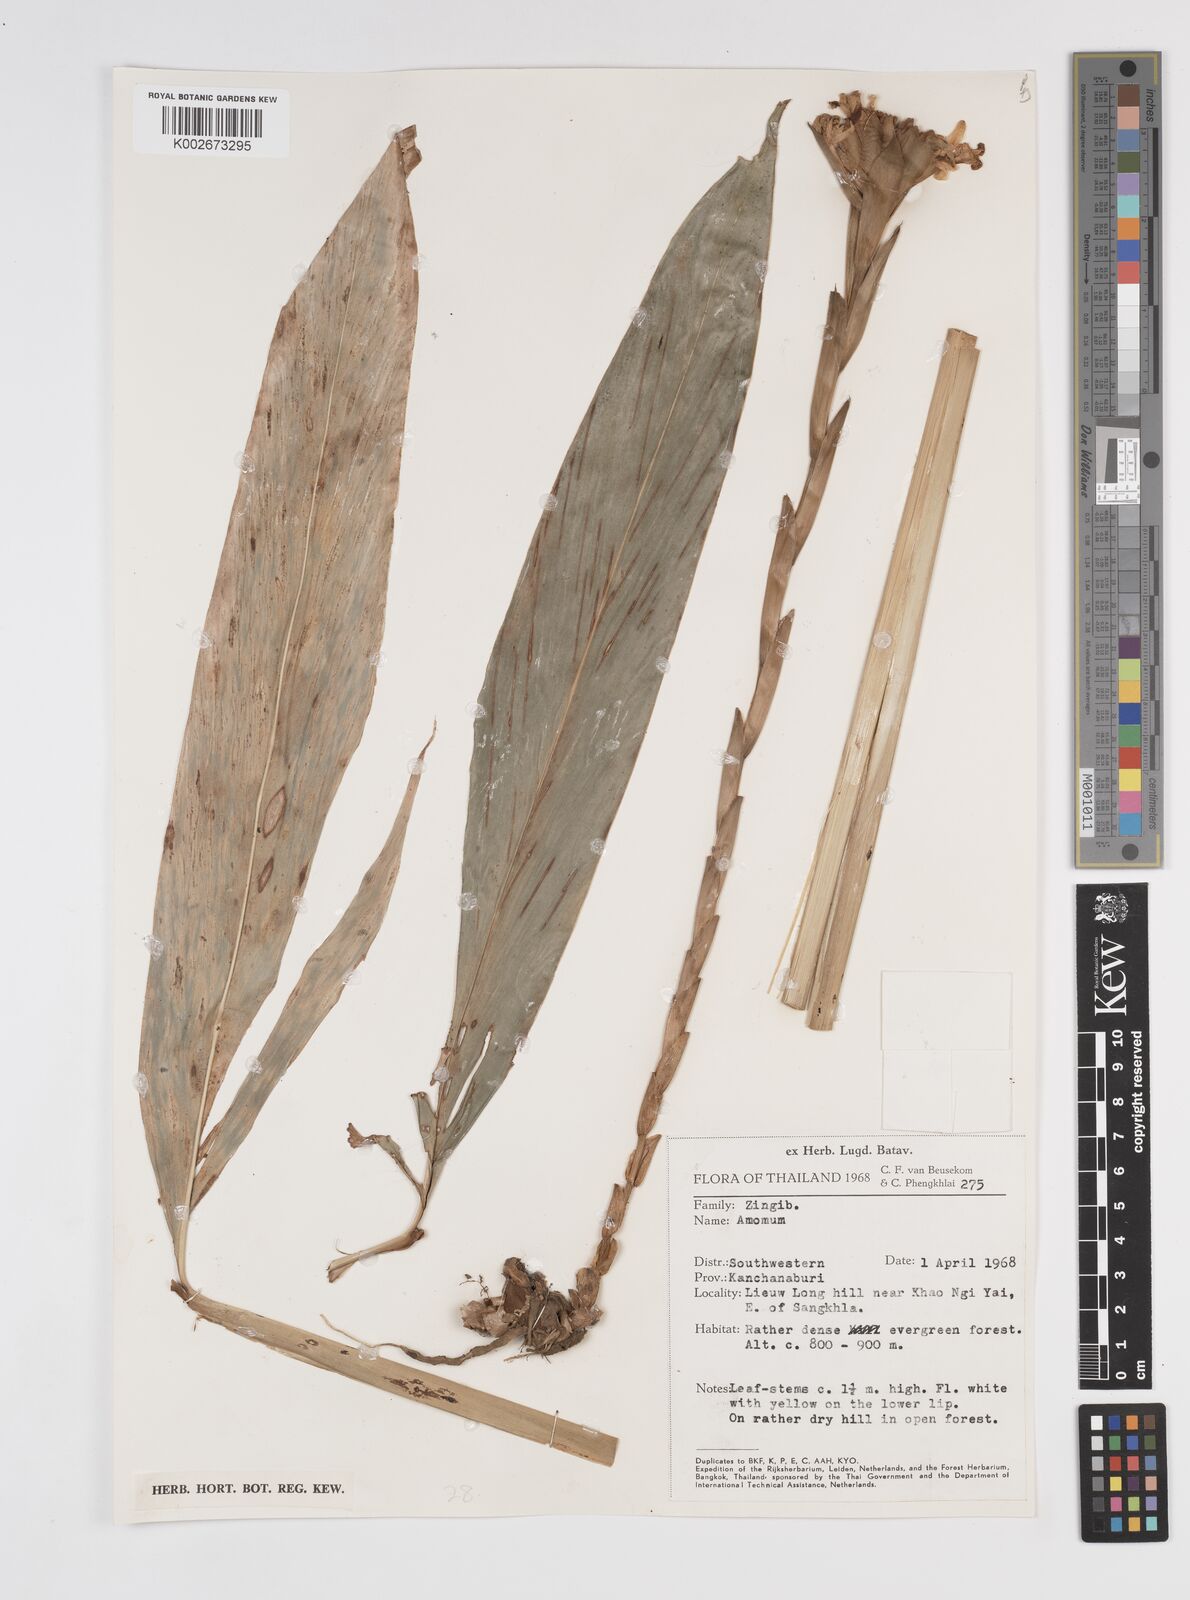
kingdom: Plantae
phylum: Tracheophyta
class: Liliopsida
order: Zingiberales
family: Zingiberaceae
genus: Amomum
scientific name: Amomum
